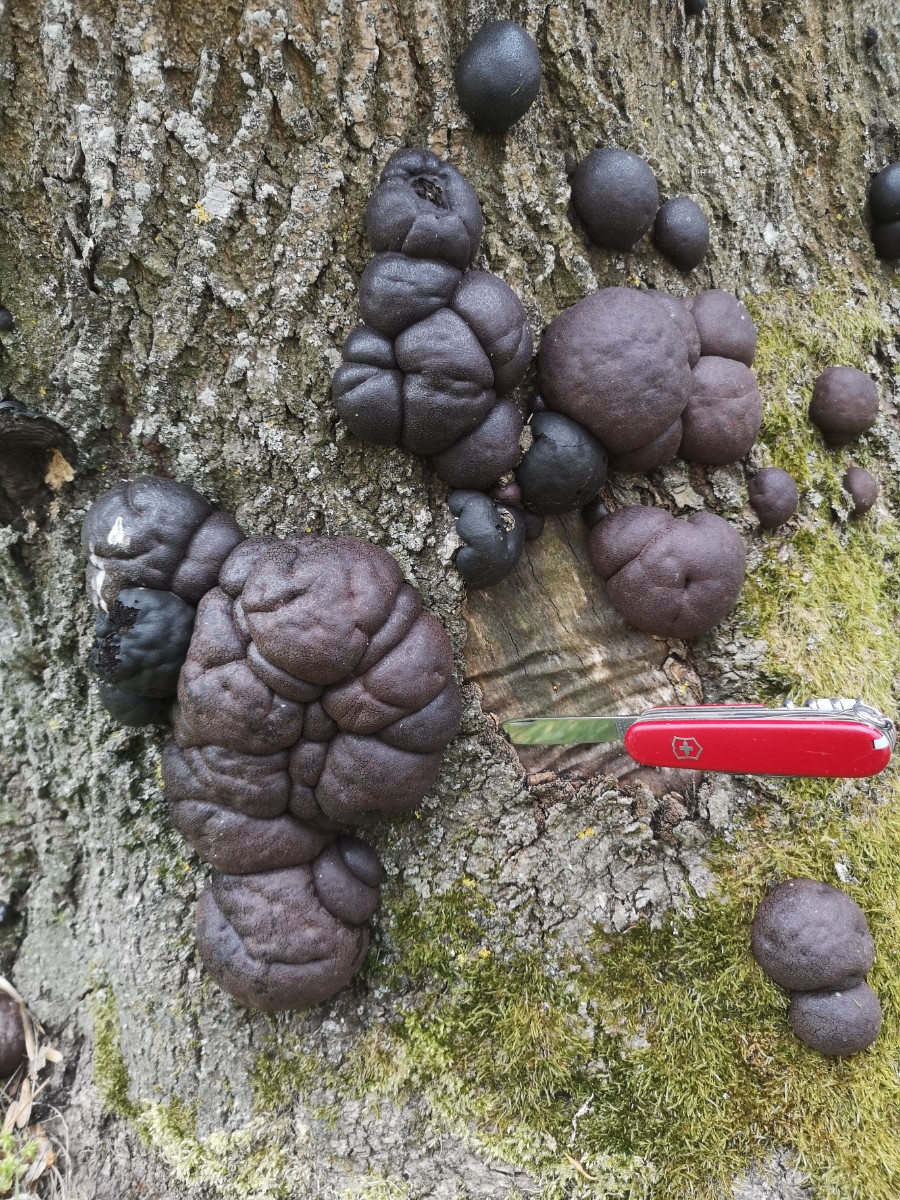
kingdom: Fungi
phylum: Ascomycota
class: Sordariomycetes
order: Xylariales
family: Hypoxylaceae
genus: Daldinia
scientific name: Daldinia concentrica
